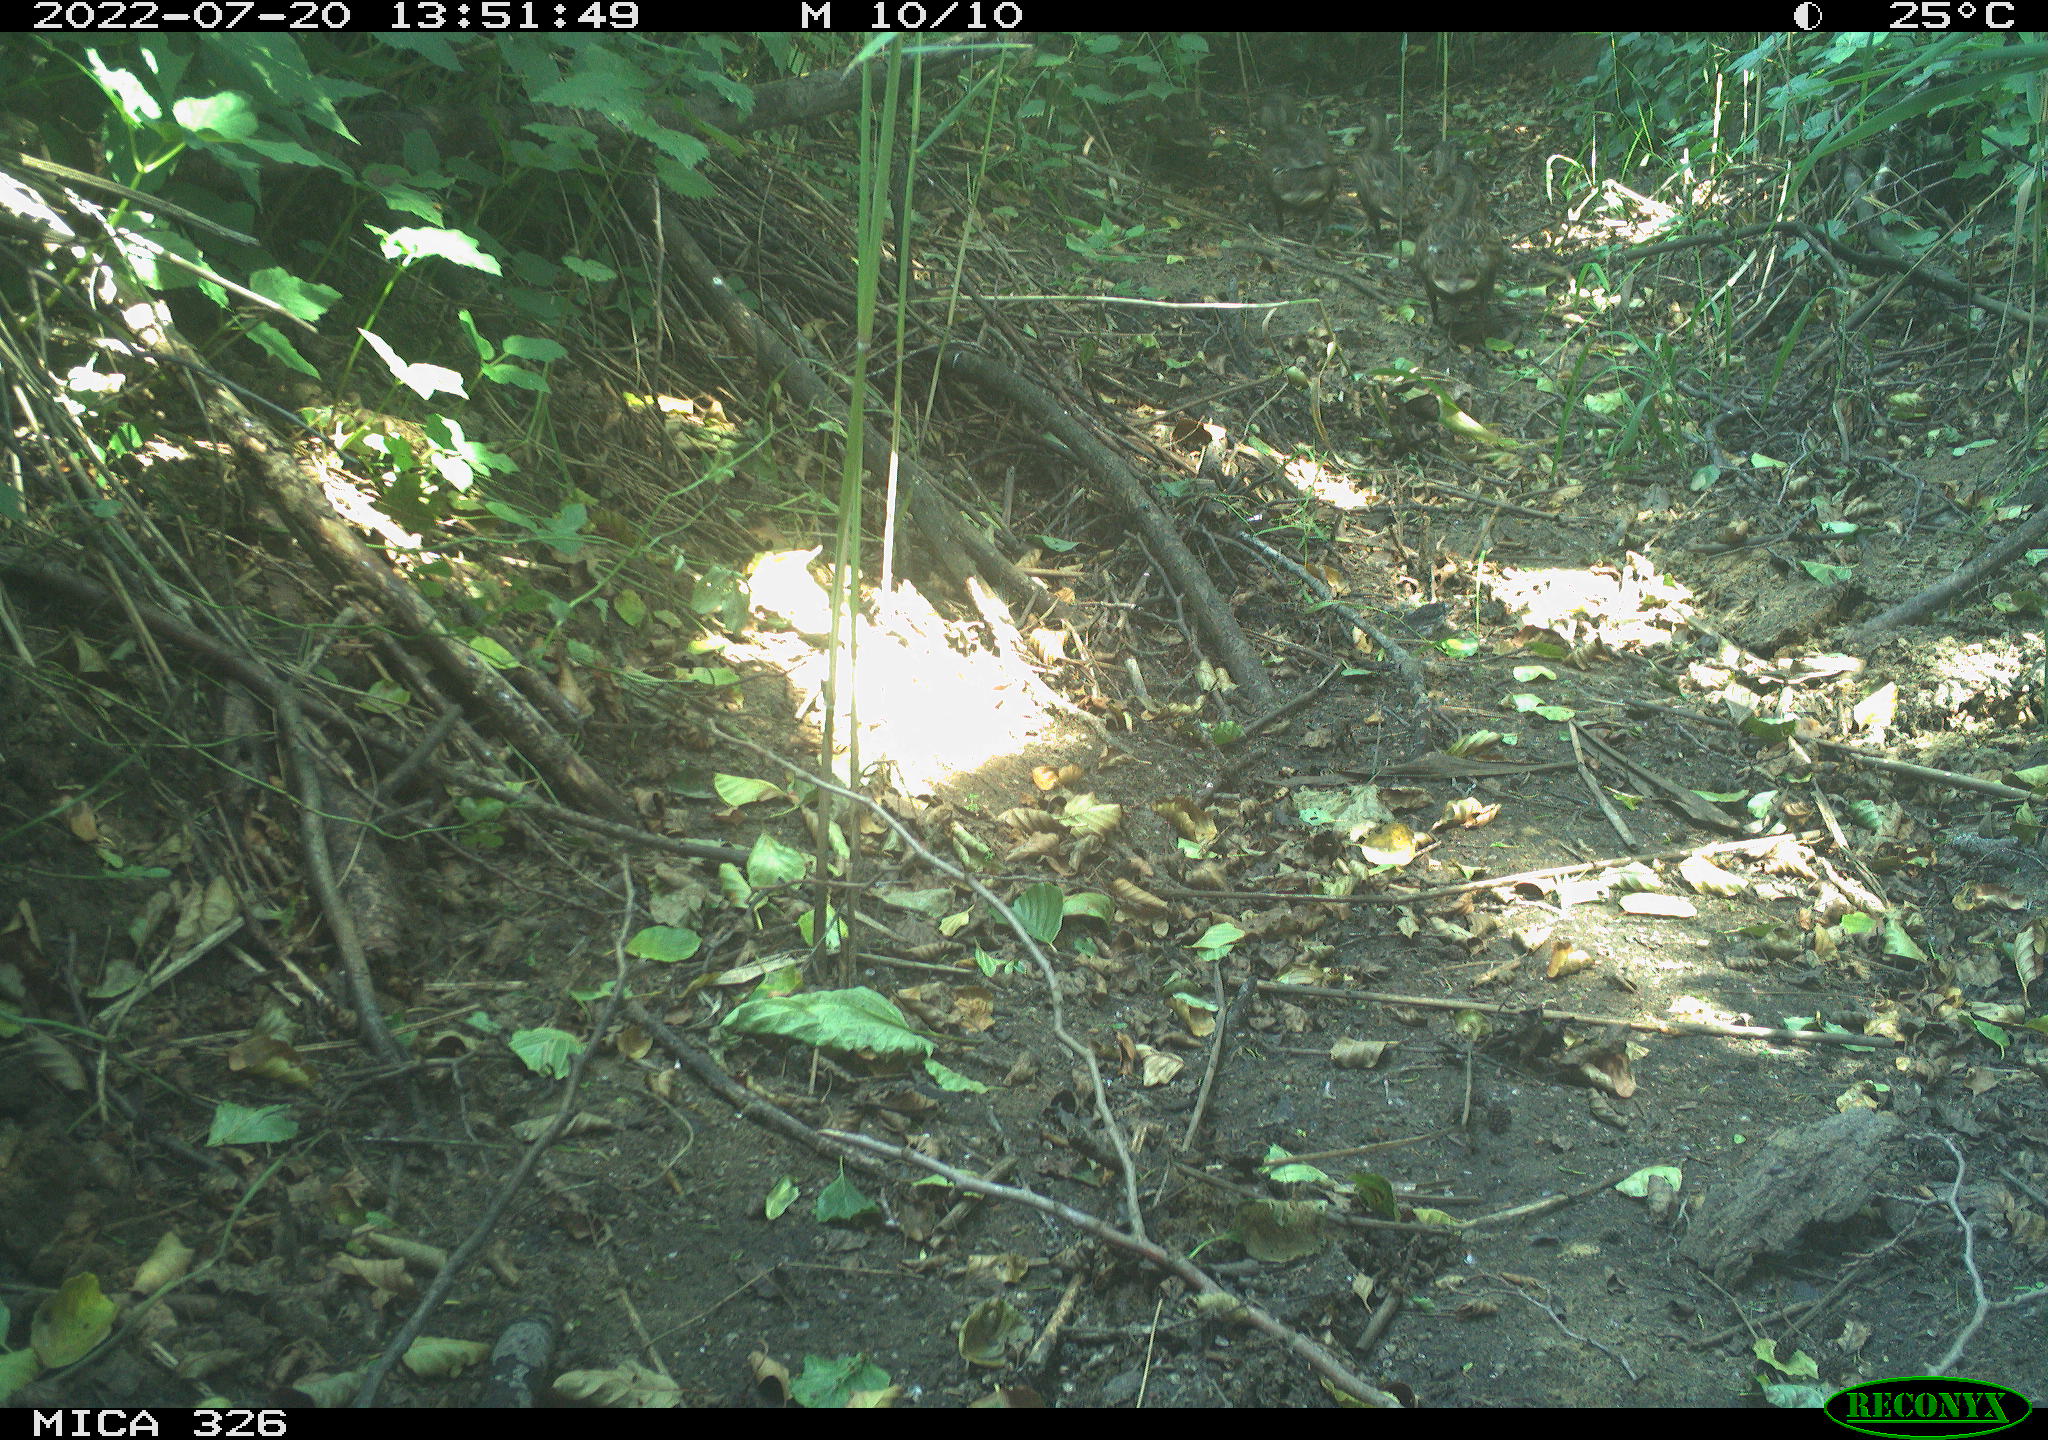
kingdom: Animalia
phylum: Chordata
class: Aves
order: Anseriformes
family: Anatidae
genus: Anas
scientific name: Anas
